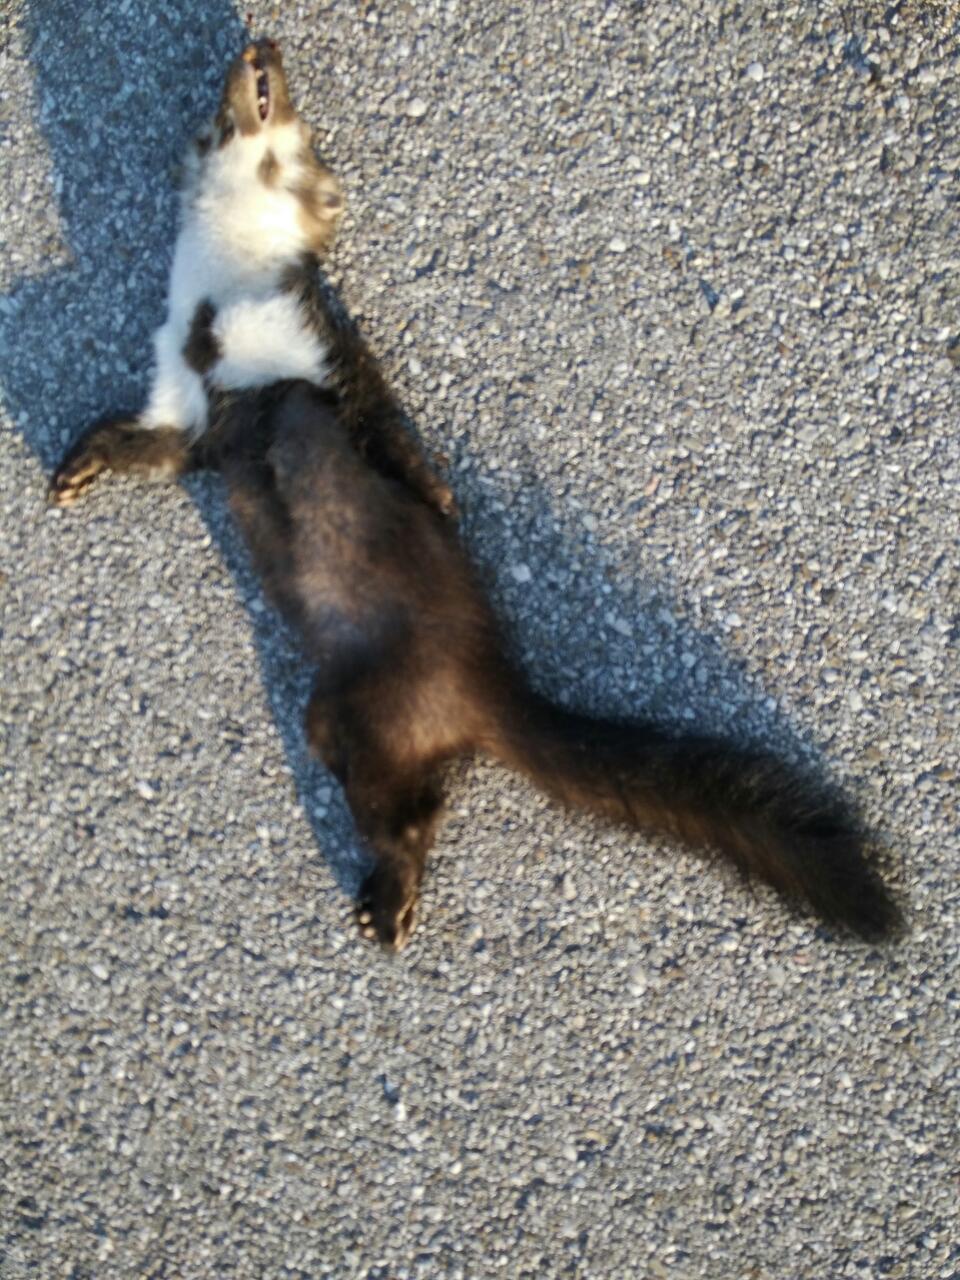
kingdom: Animalia
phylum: Chordata
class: Mammalia
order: Carnivora
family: Mustelidae
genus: Martes
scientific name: Martes foina
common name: Beech marten
